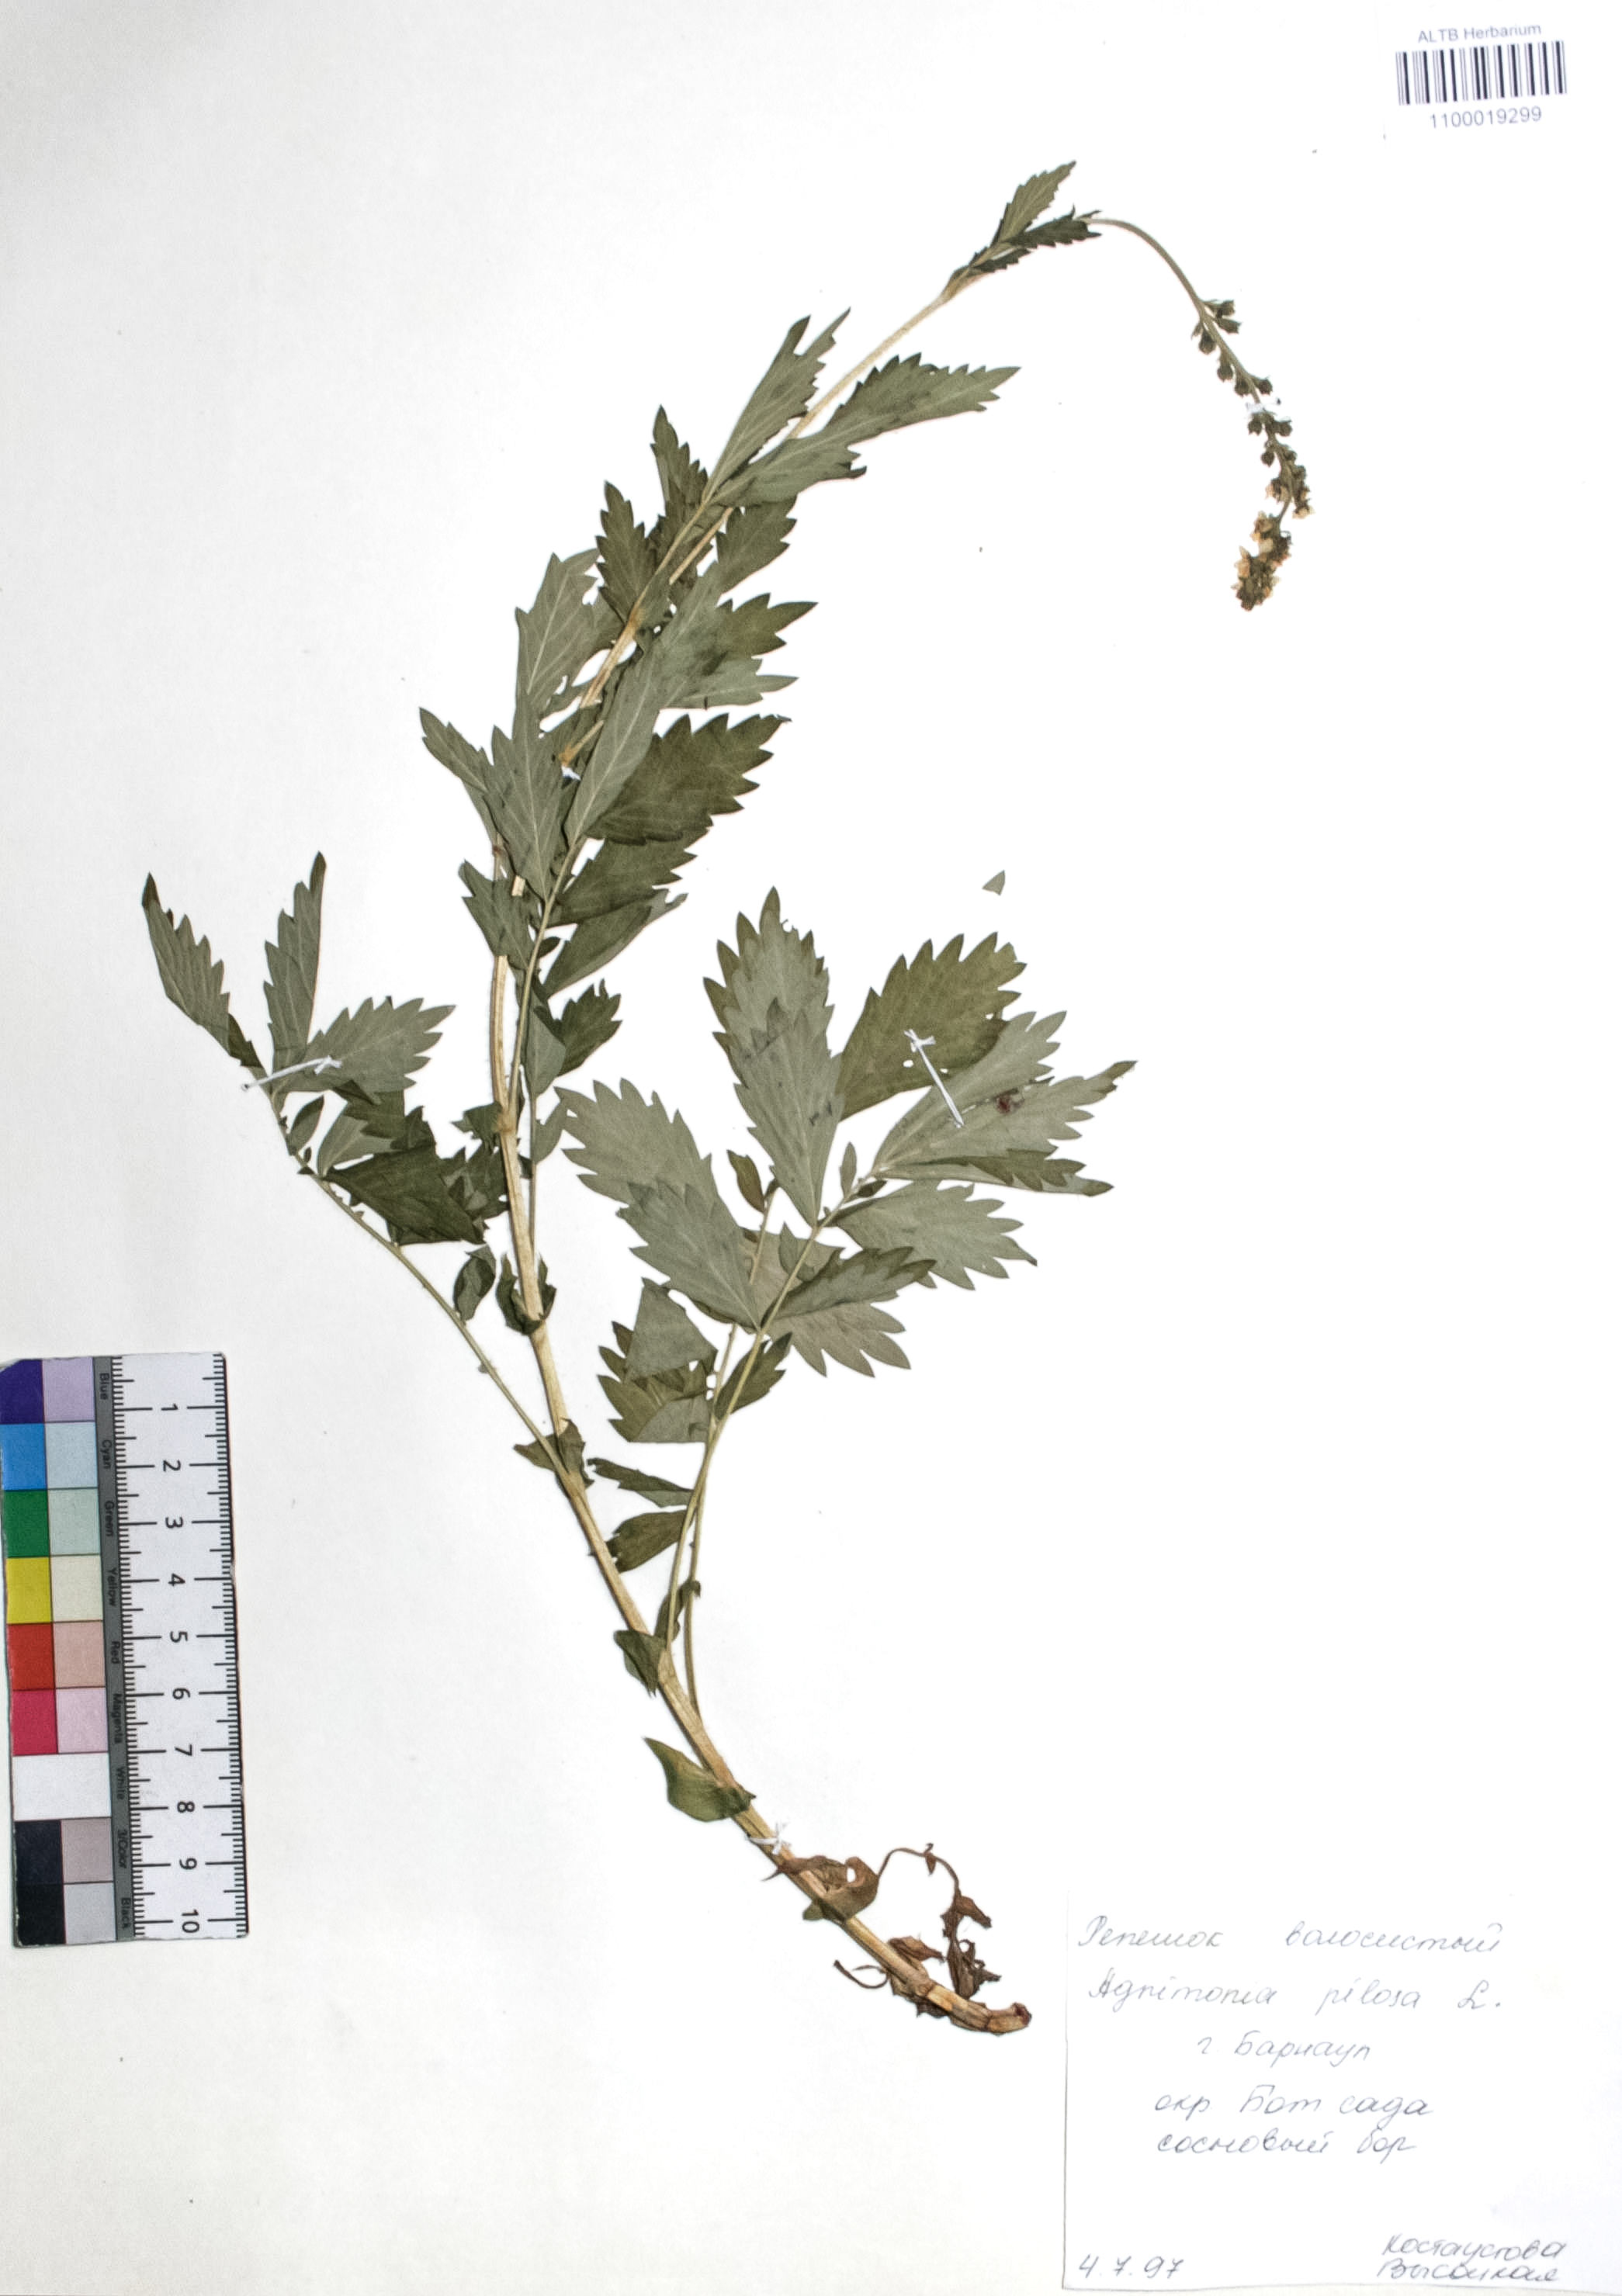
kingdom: Plantae
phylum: Tracheophyta
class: Magnoliopsida
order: Rosales
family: Rosaceae
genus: Agrimonia
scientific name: Agrimonia pilosa
